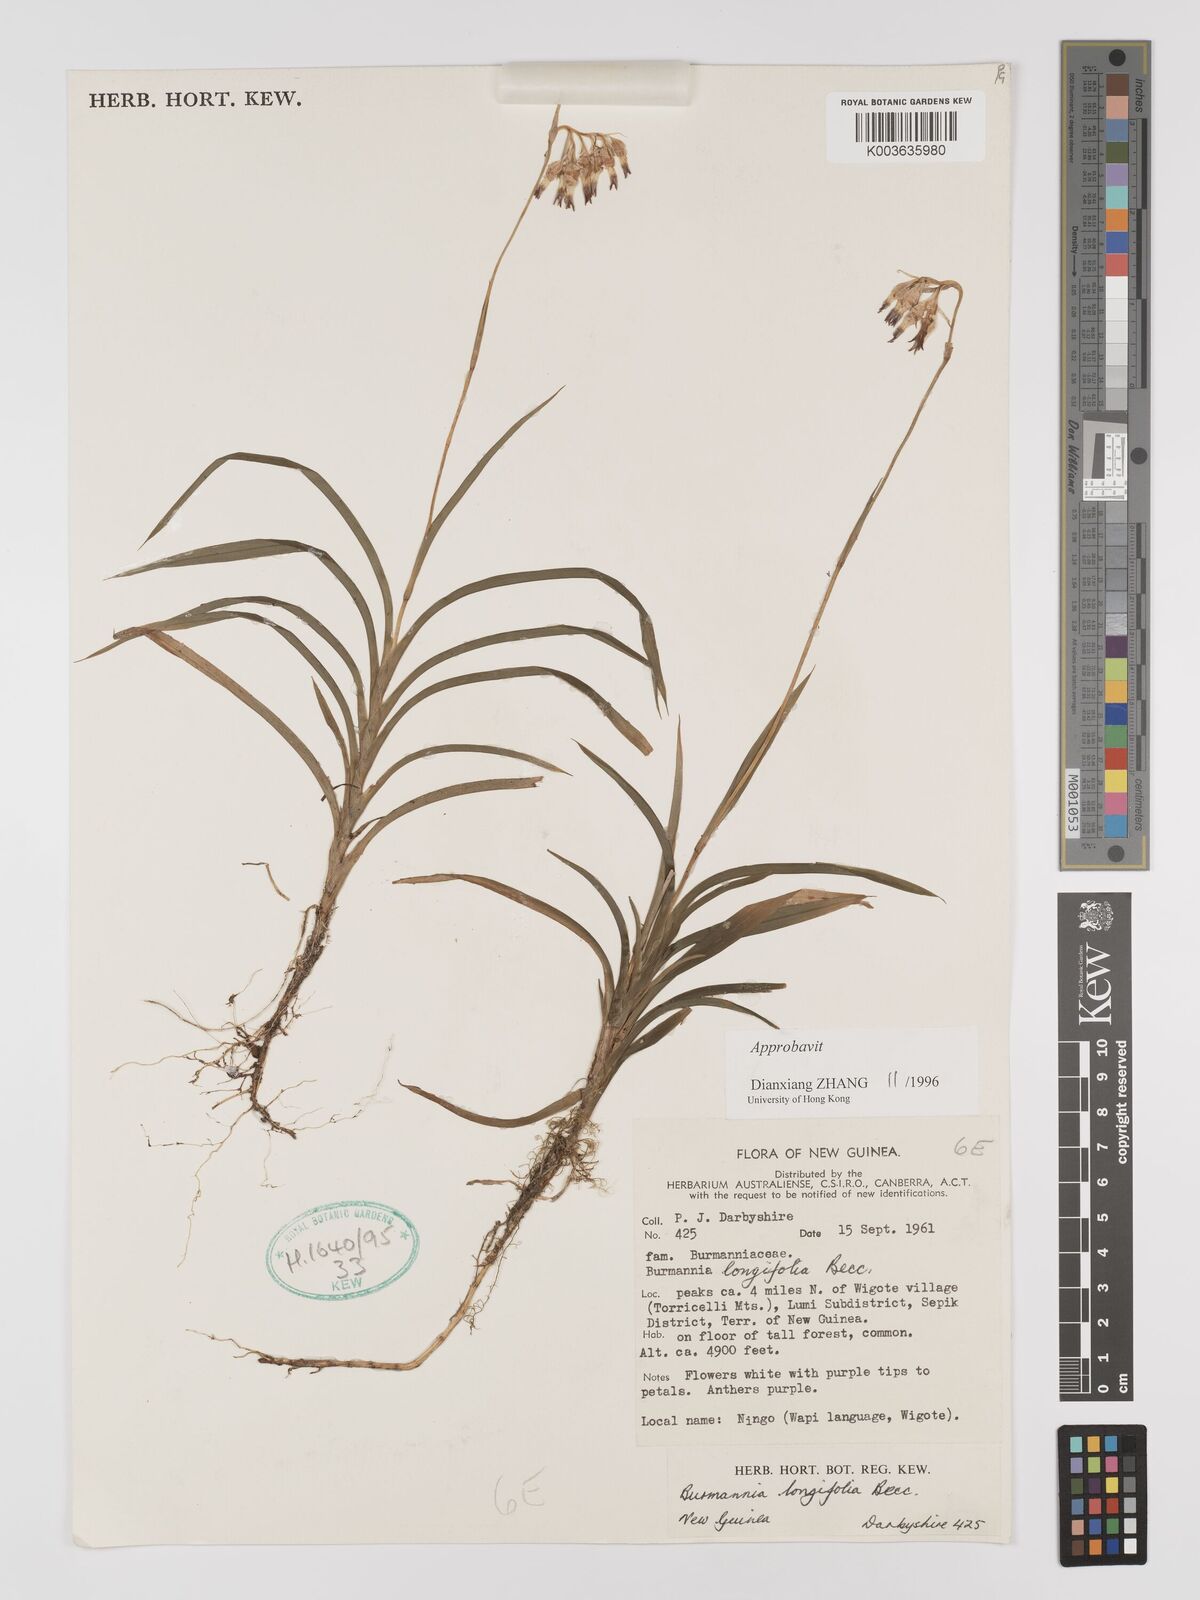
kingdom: Plantae
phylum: Tracheophyta
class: Liliopsida
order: Dioscoreales
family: Burmanniaceae
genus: Burmannia
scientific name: Burmannia longifolia
